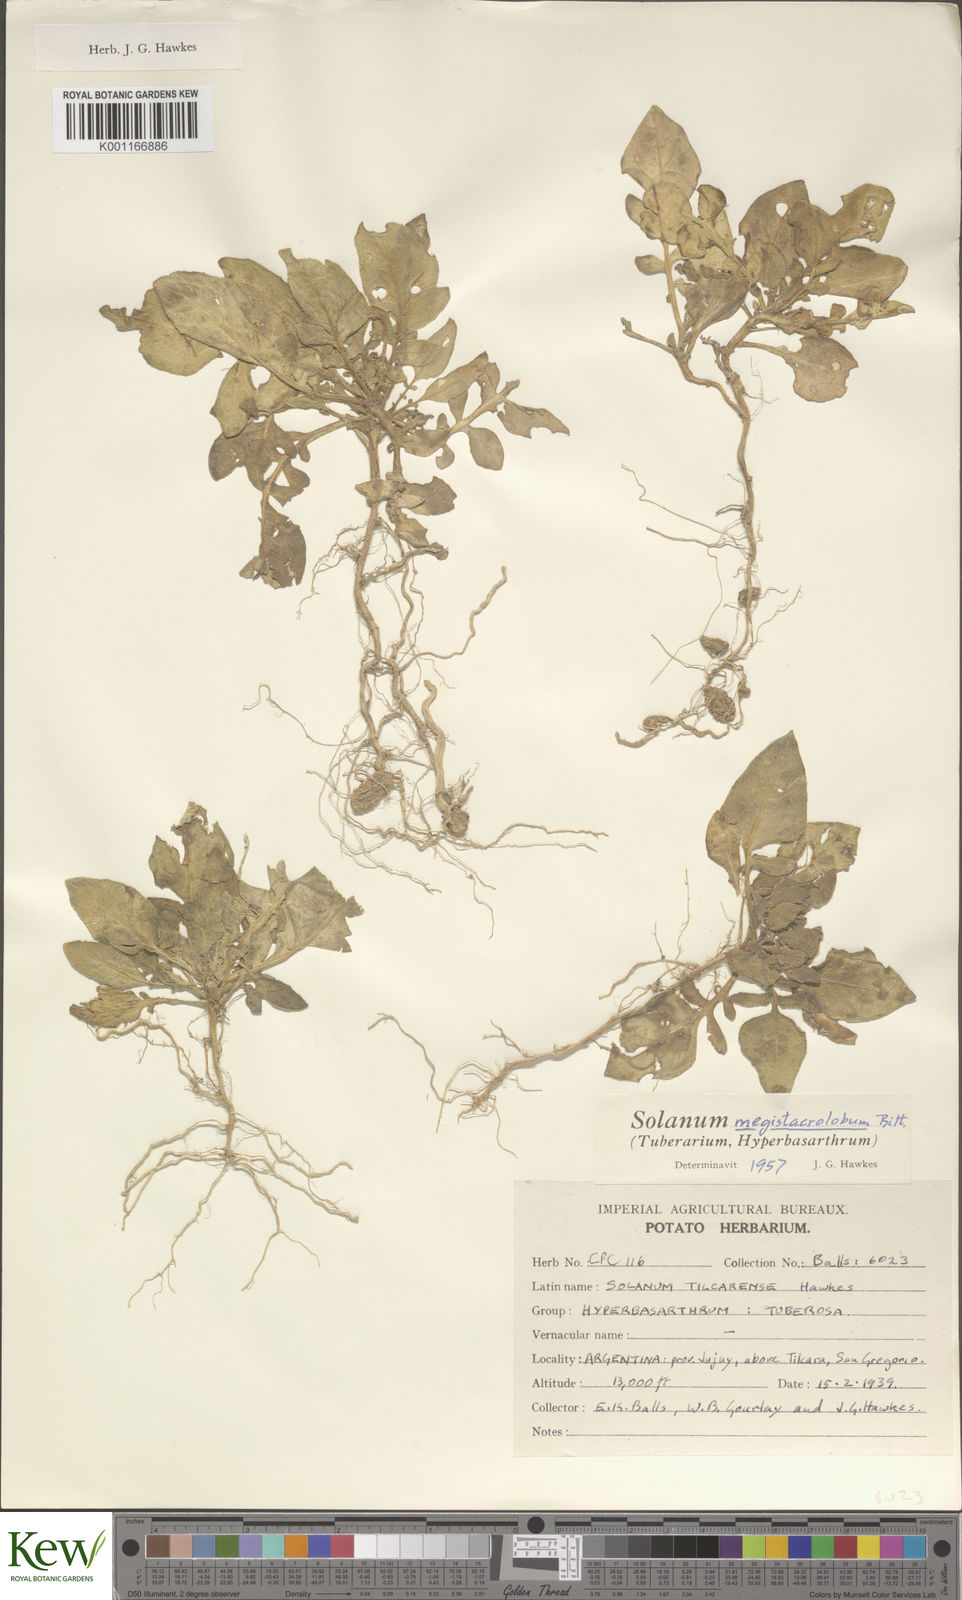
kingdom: Plantae
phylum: Tracheophyta
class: Magnoliopsida
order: Solanales
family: Solanaceae
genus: Solanum
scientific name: Solanum boliviense
